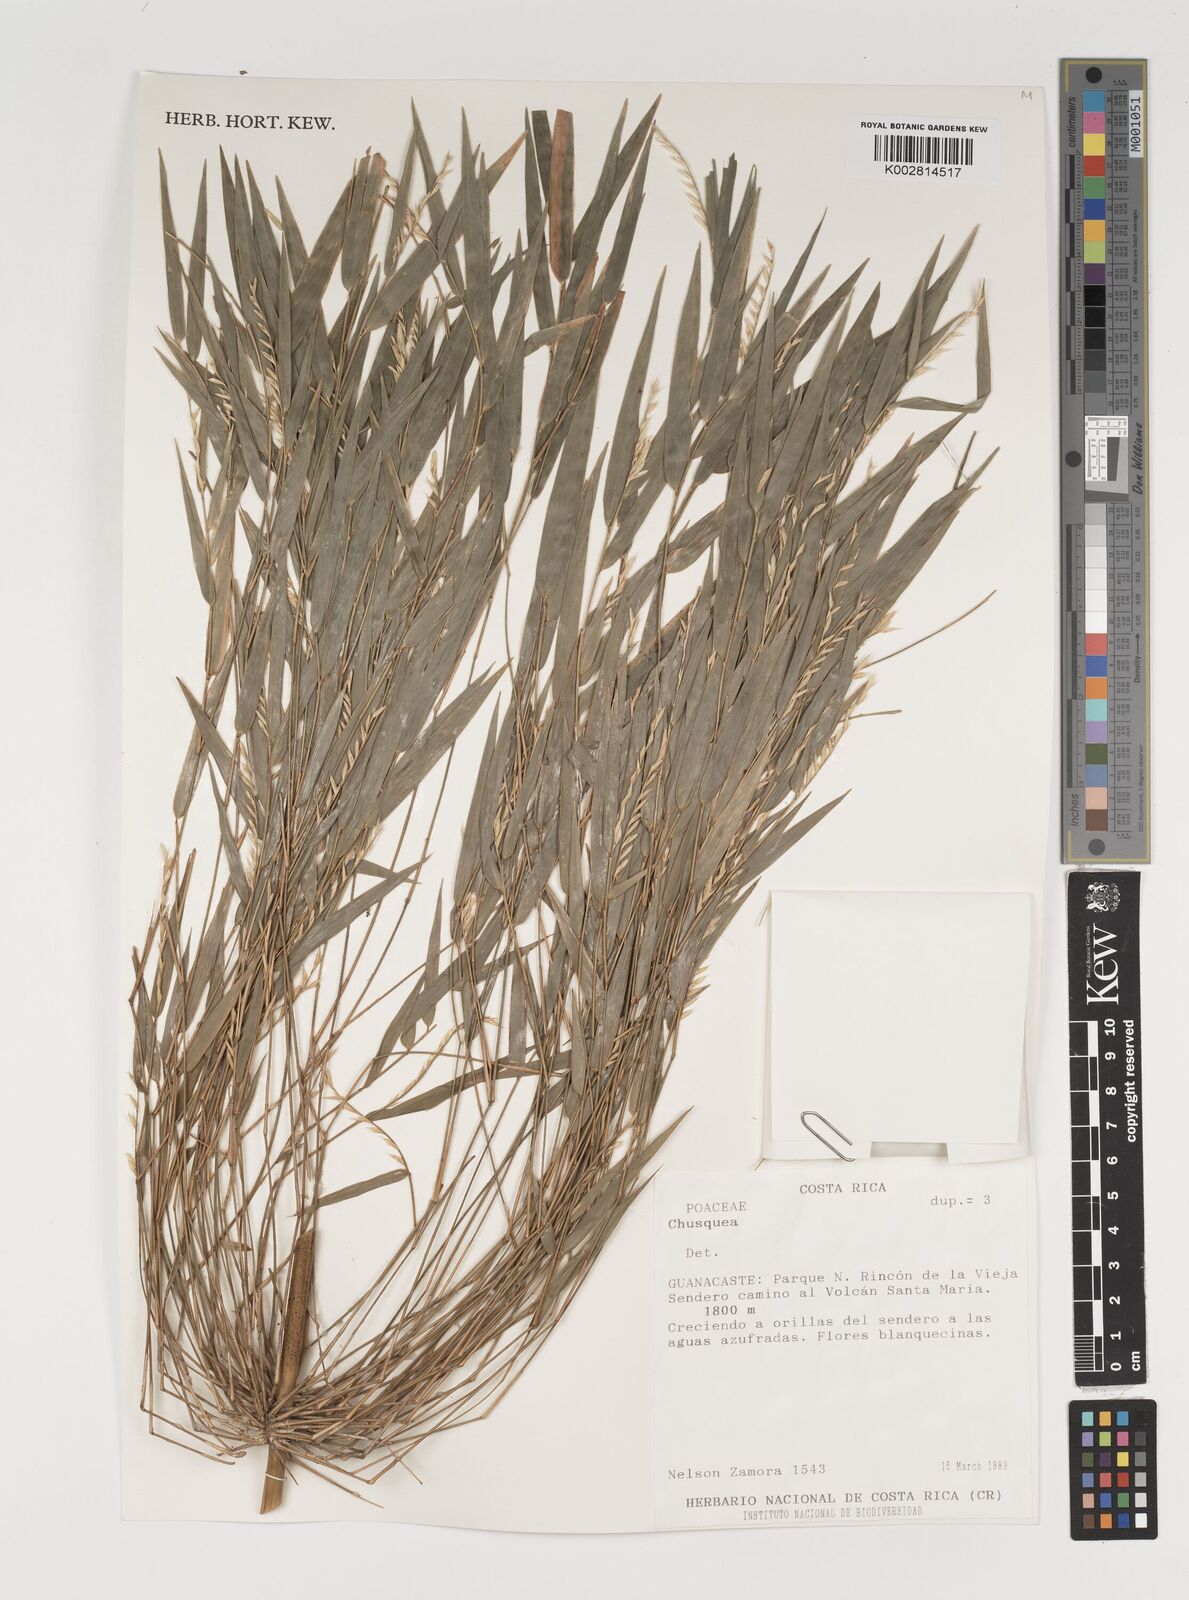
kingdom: Plantae
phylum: Tracheophyta
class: Liliopsida
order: Poales
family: Poaceae
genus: Rhipidocladum
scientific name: Rhipidocladum racemiflorum
